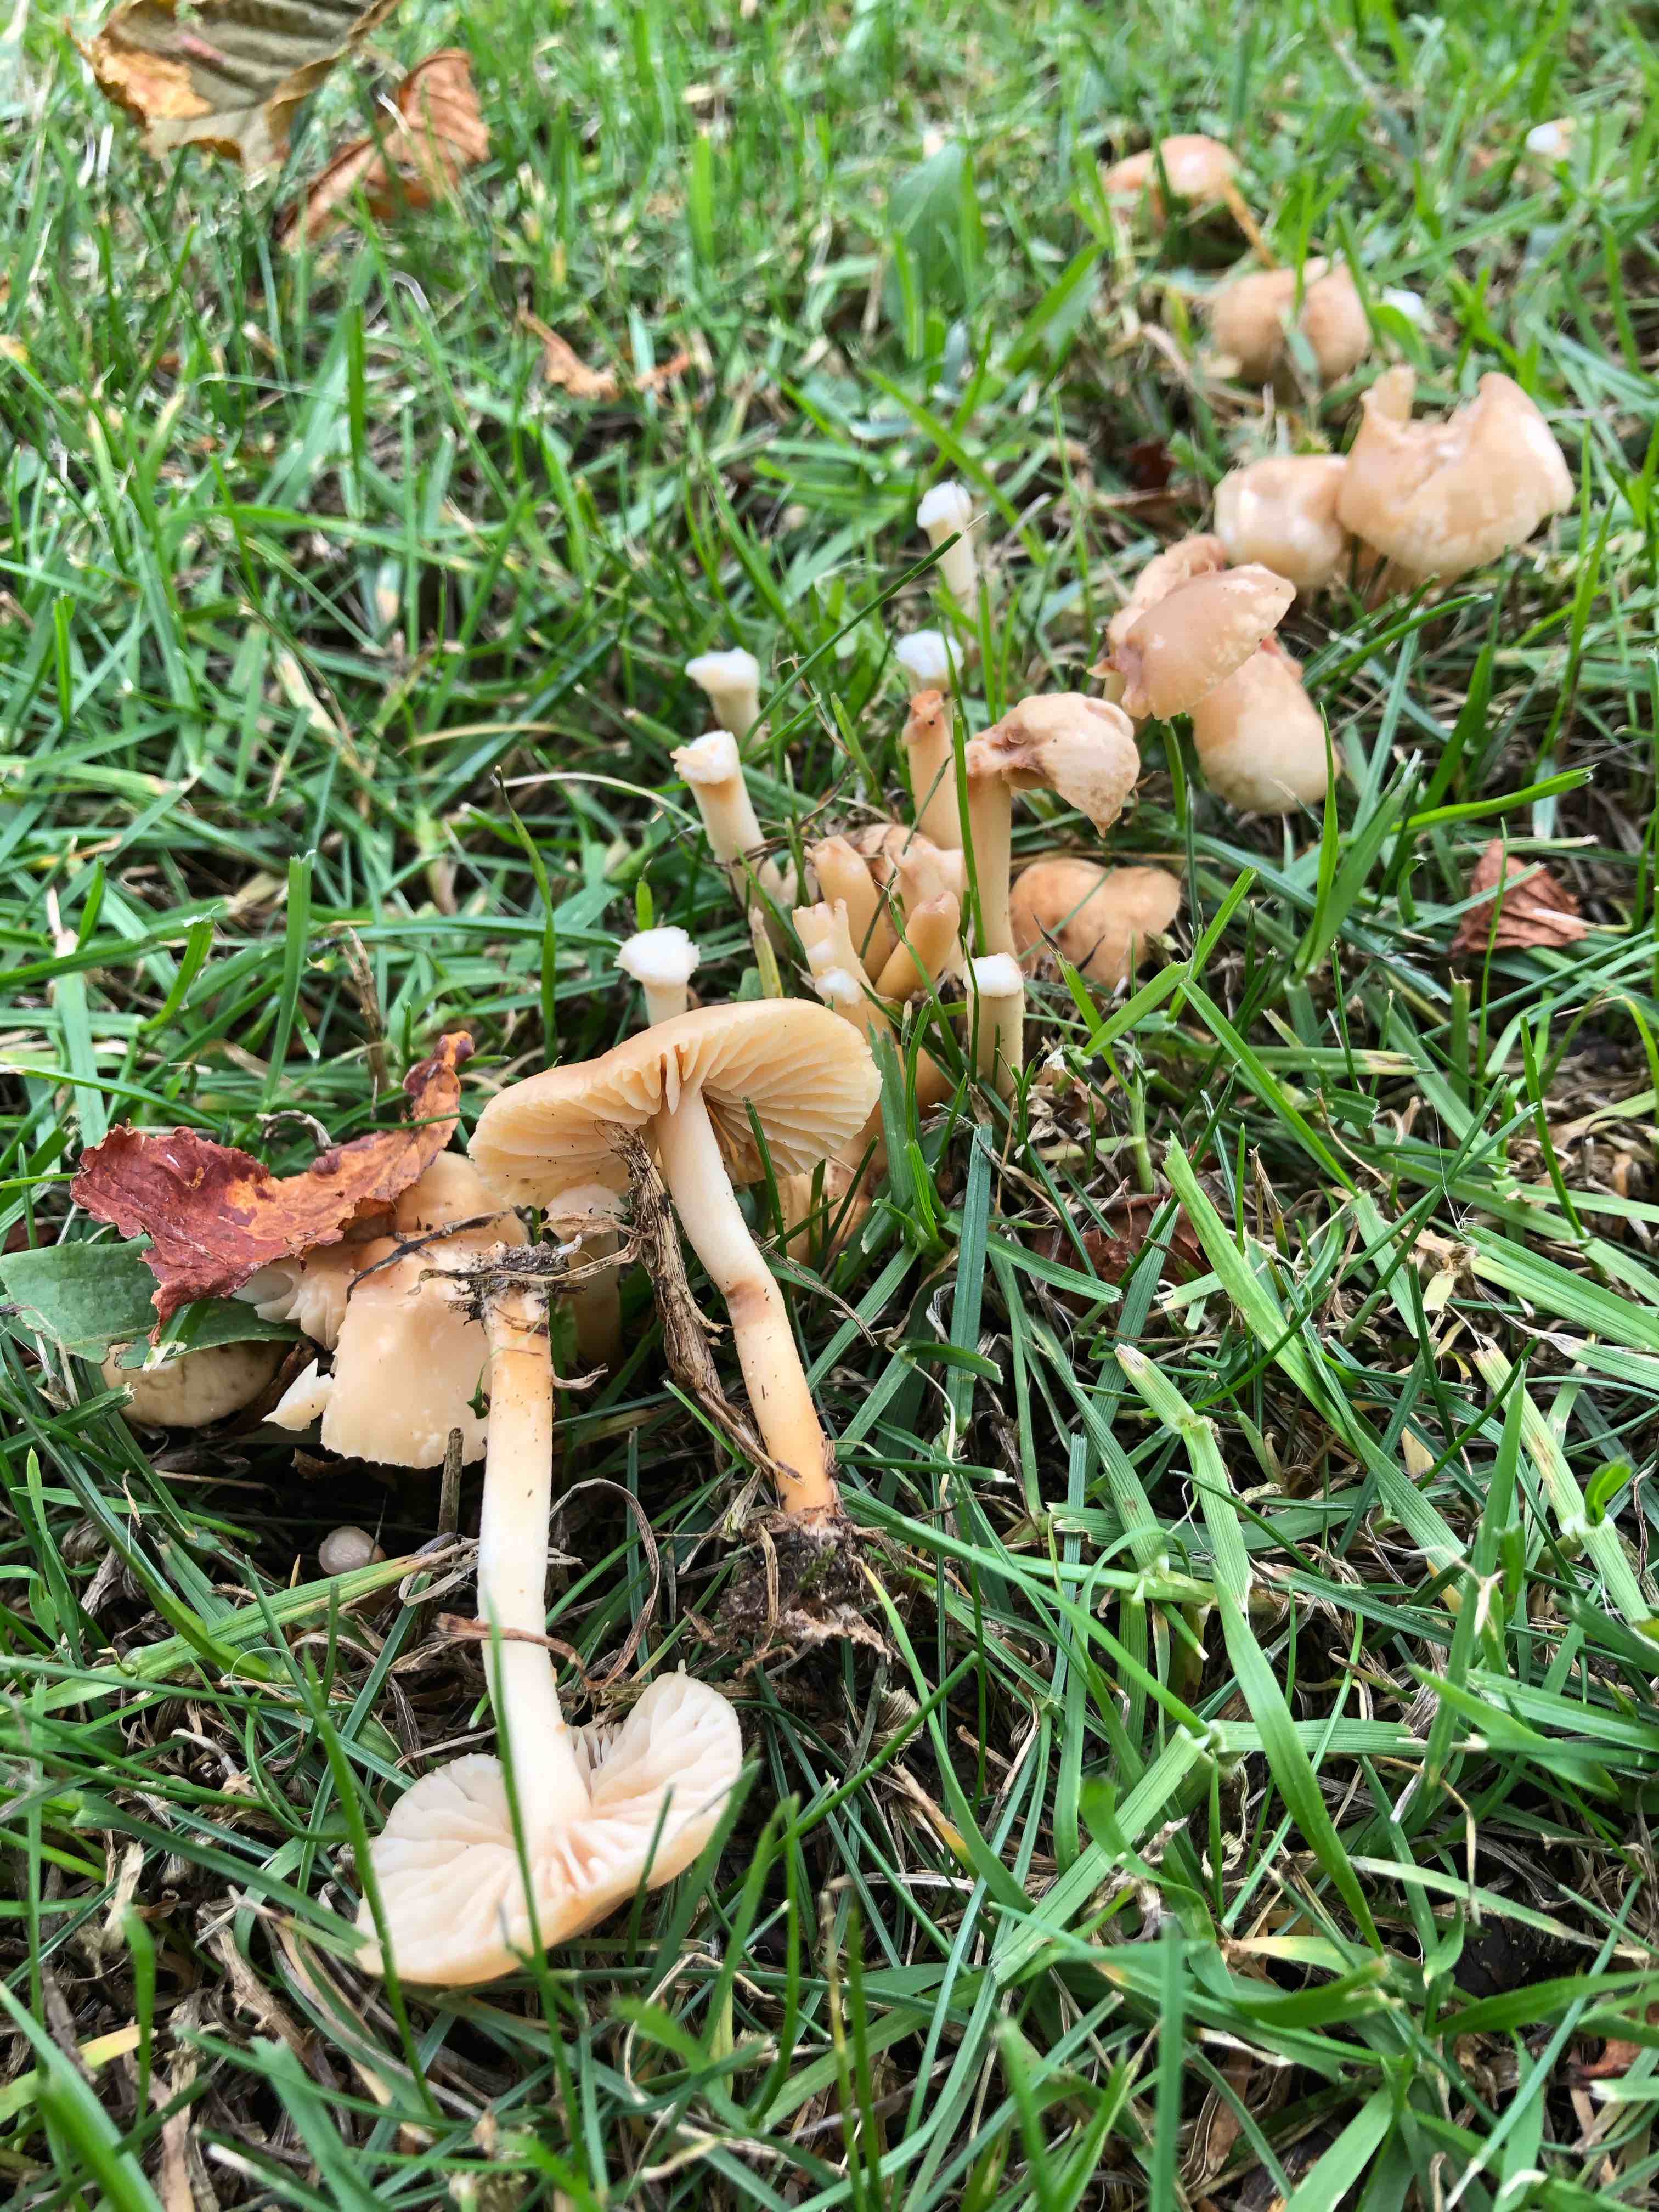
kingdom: Fungi
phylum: Basidiomycota
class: Agaricomycetes
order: Agaricales
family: Marasmiaceae
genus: Marasmius
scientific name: Marasmius oreades
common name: elledans-bruskhat
